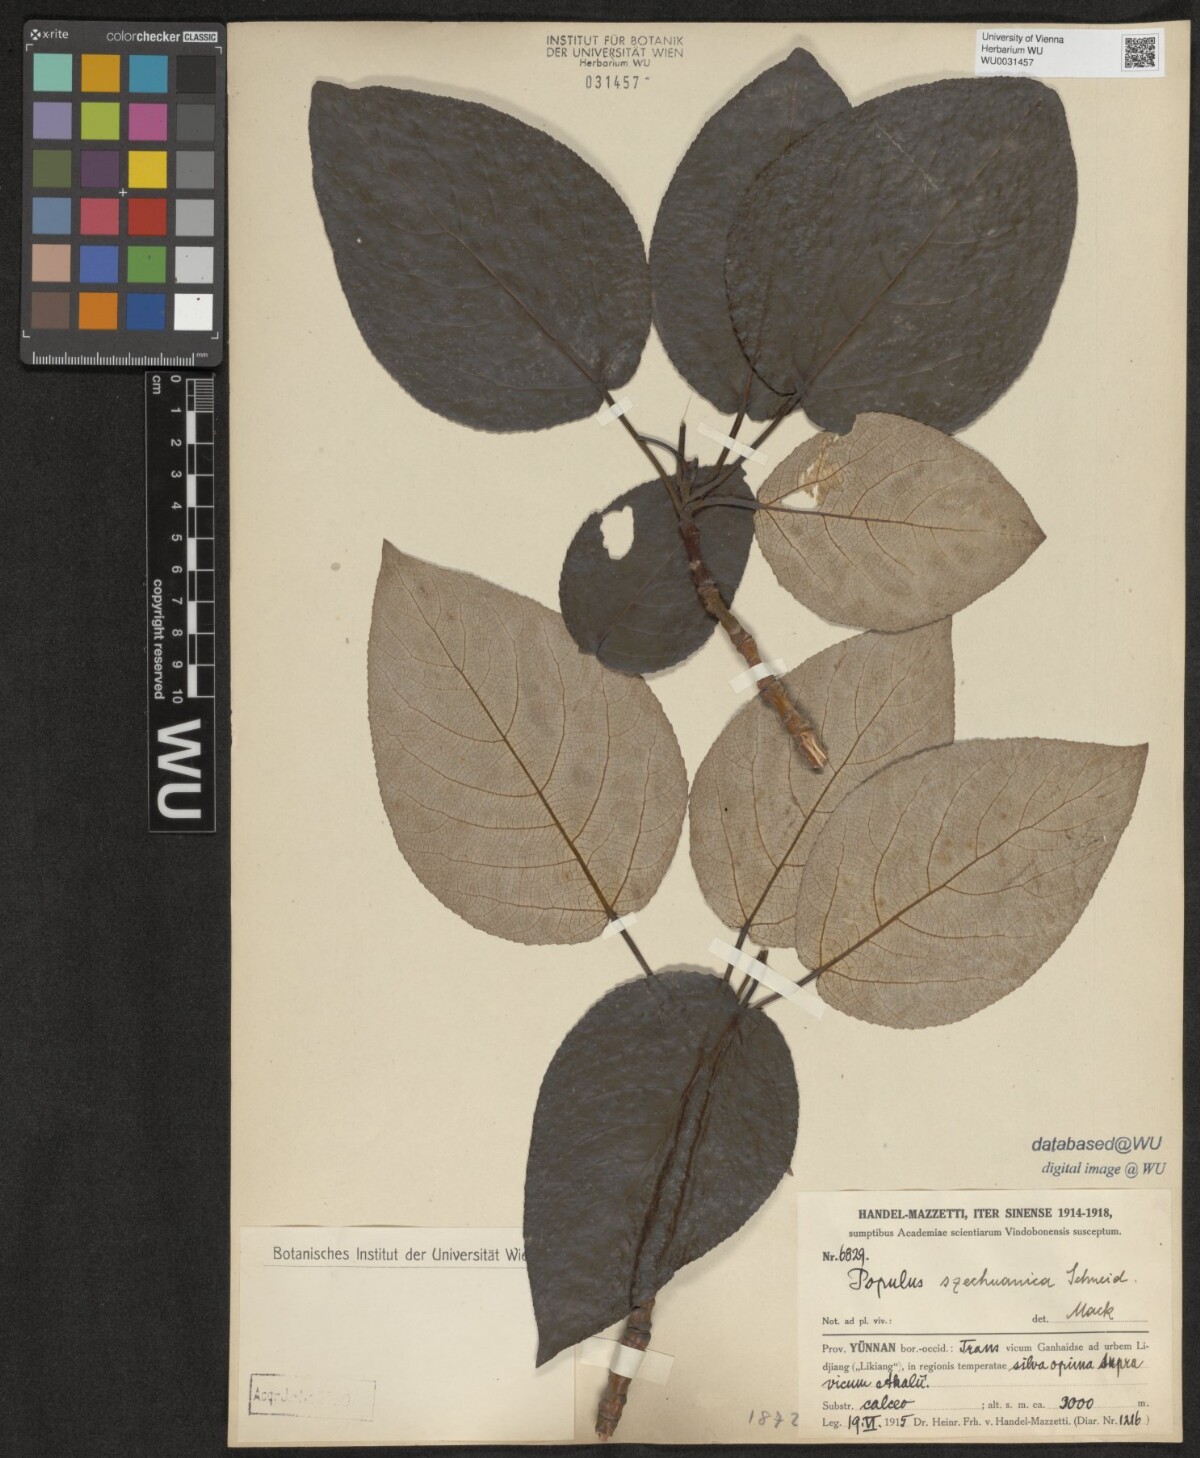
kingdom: Plantae
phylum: Tracheophyta
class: Magnoliopsida
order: Malpighiales
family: Salicaceae
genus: Populus
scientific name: Populus szechuanica
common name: Szechuan poplar
